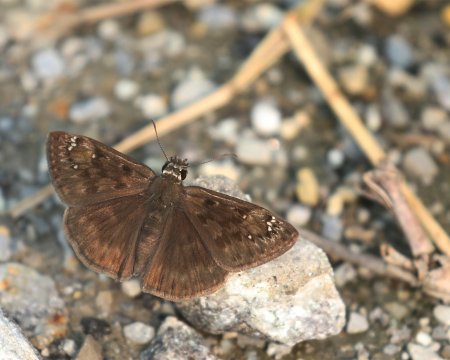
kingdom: Animalia
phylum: Arthropoda
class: Insecta
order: Lepidoptera
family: Hesperiidae
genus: Gesta
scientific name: Gesta
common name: Horace's Duskywing
